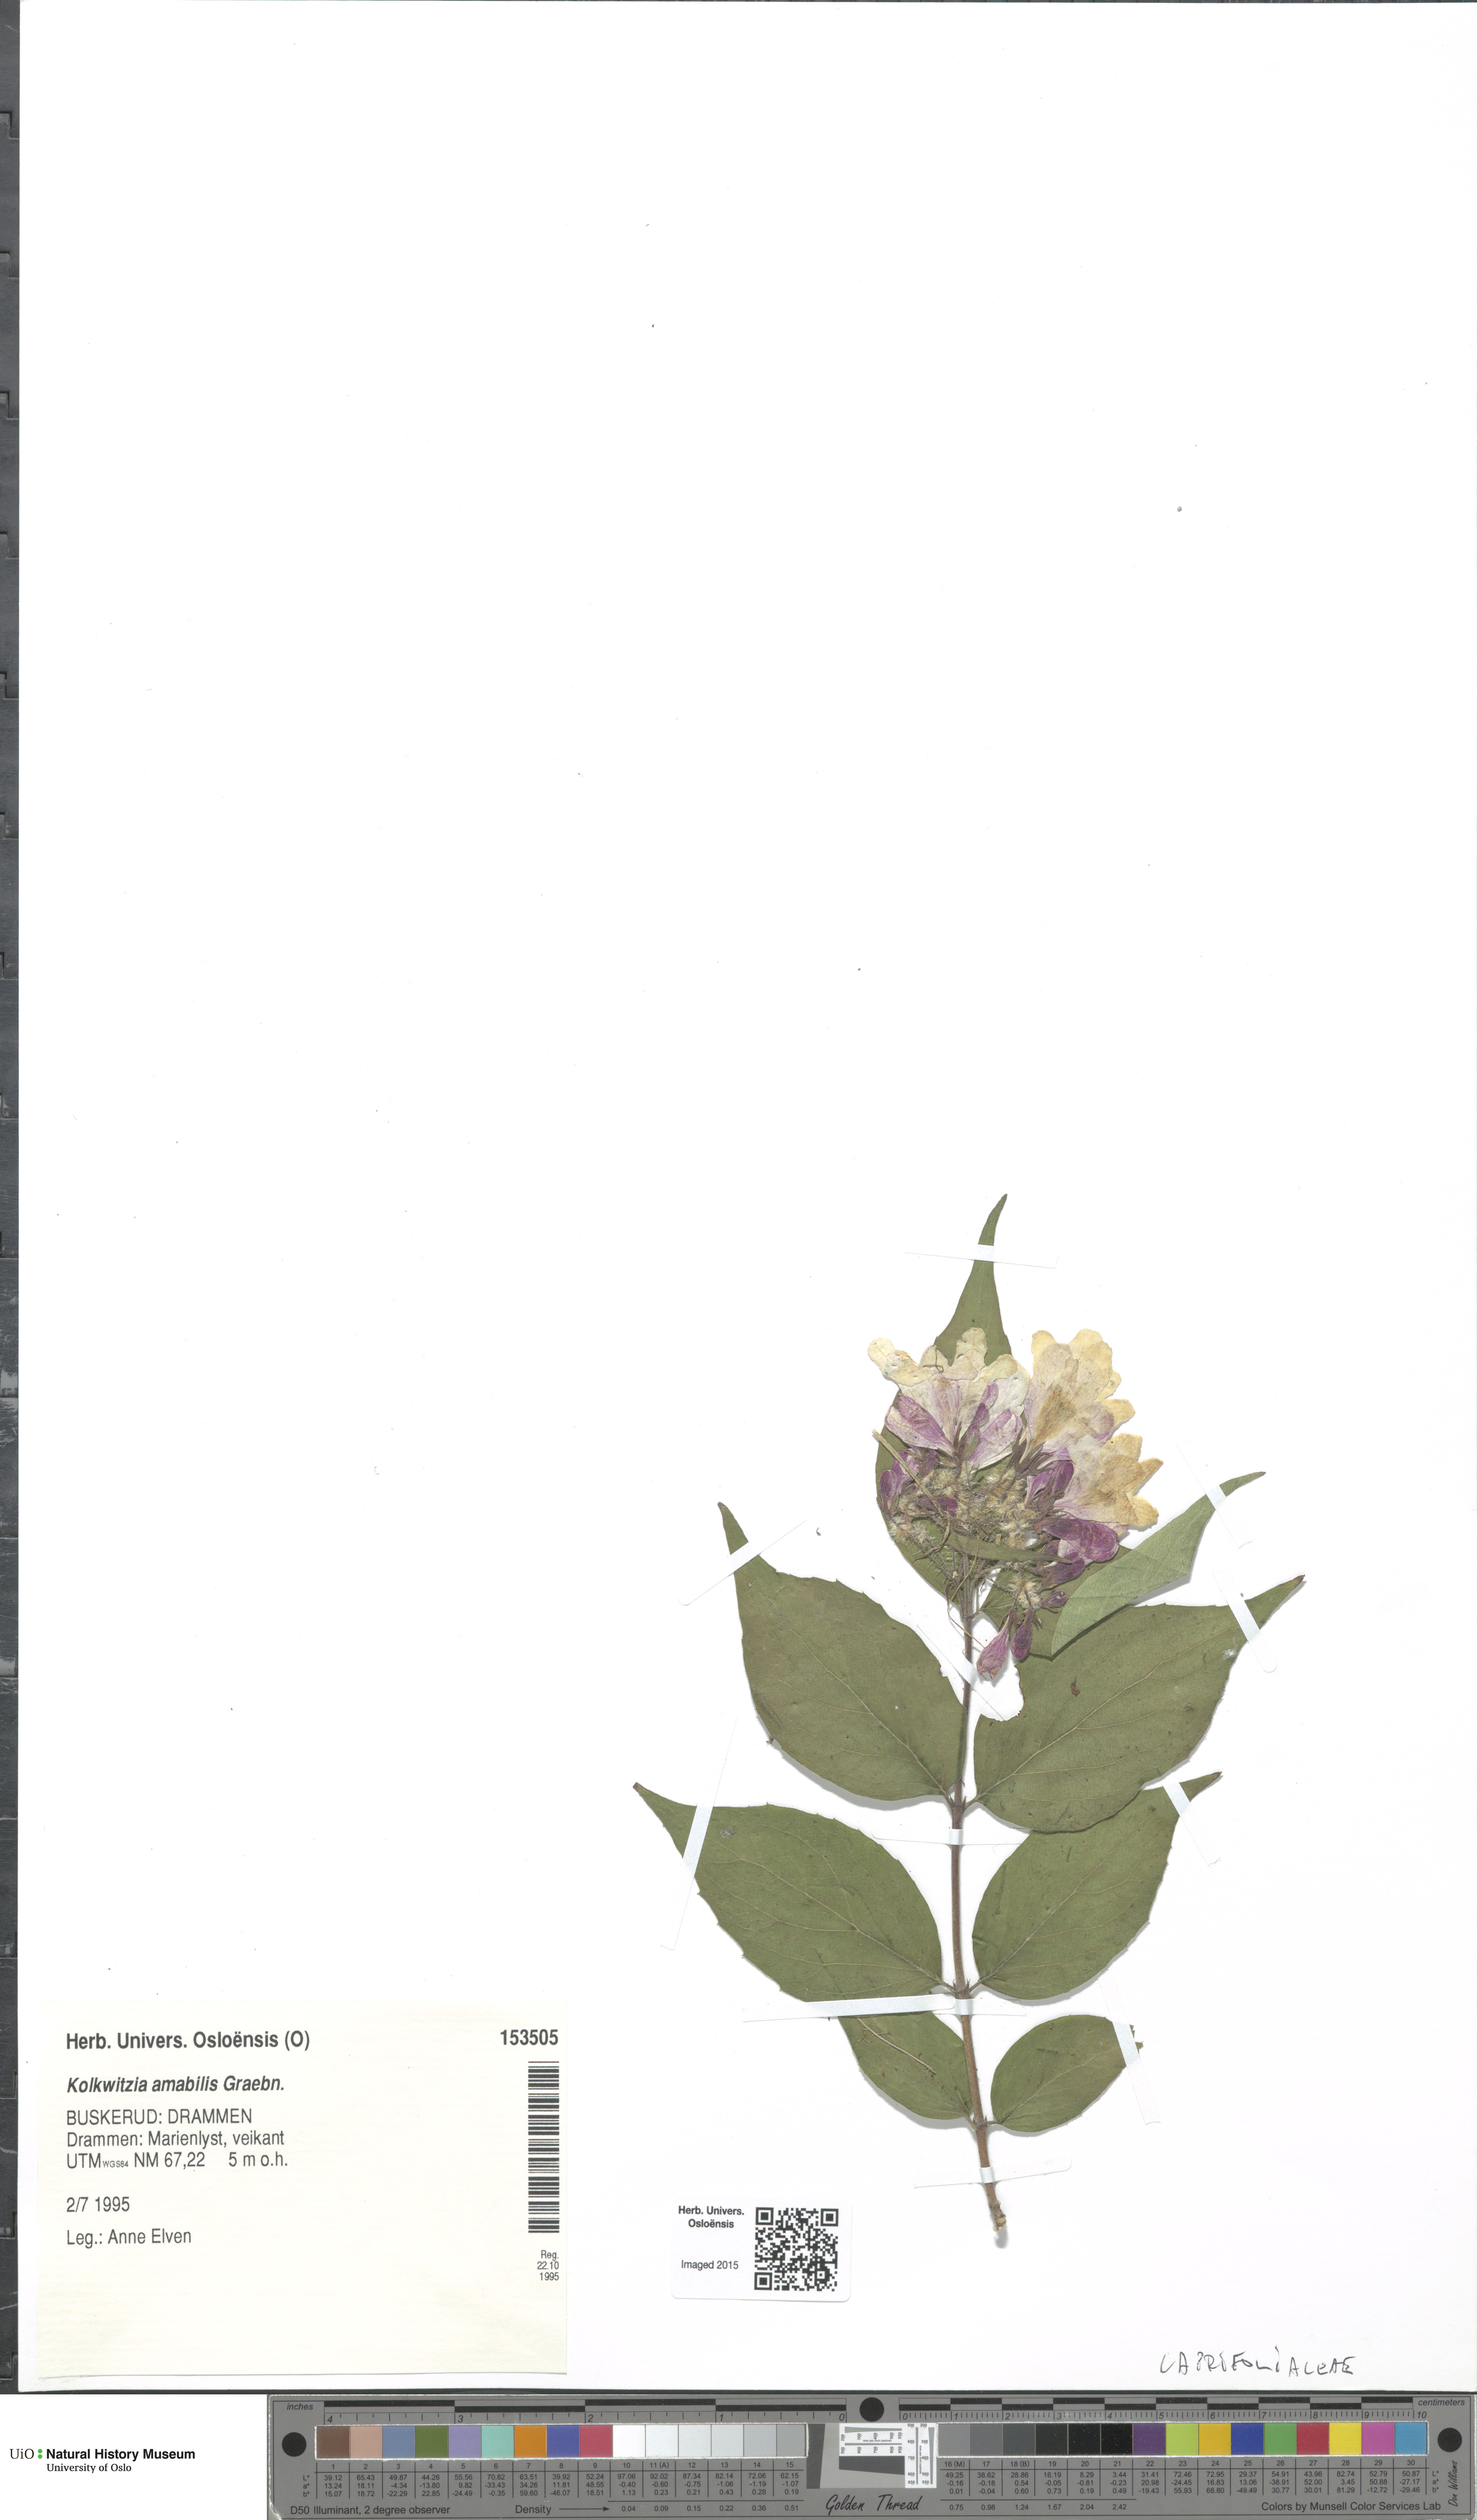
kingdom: Plantae
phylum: Tracheophyta
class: Magnoliopsida
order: Dipsacales
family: Caprifoliaceae
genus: Kolkwitzia
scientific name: Kolkwitzia amabilis
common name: Beautybush
